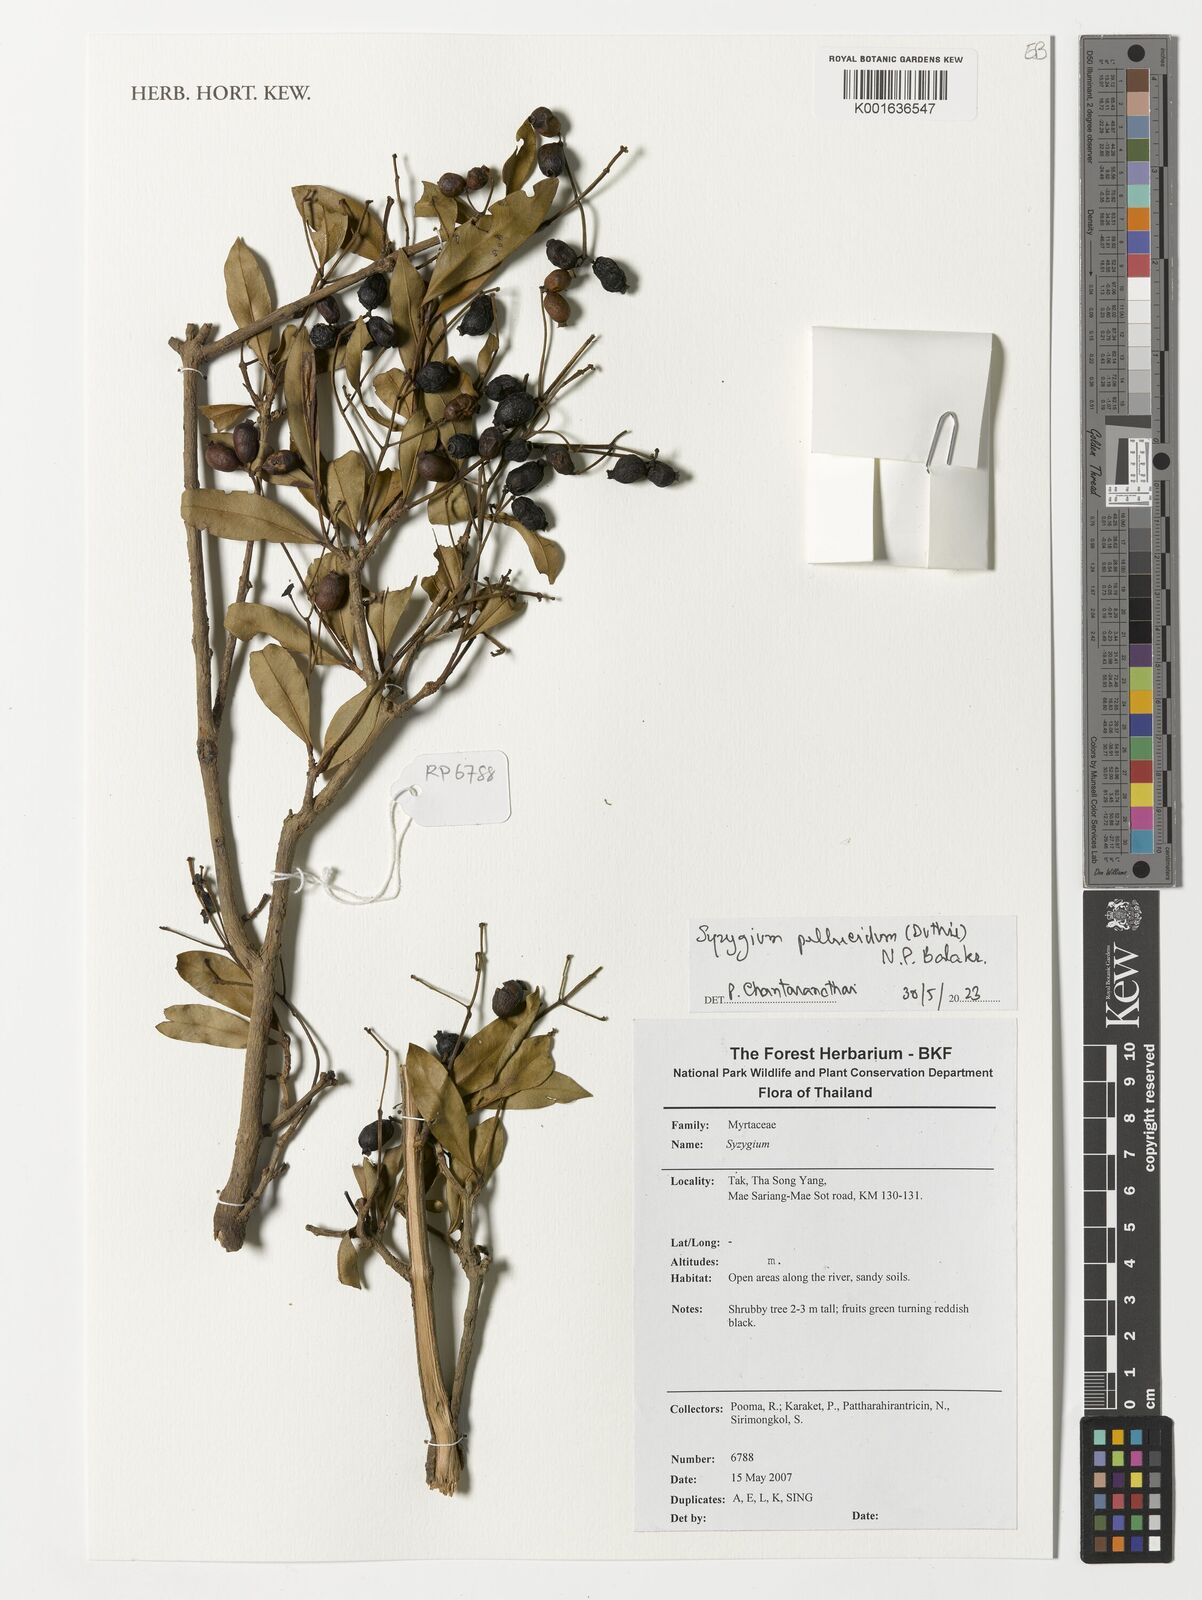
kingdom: Plantae
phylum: Tracheophyta
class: Magnoliopsida
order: Myrtales
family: Myrtaceae
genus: Syzygium
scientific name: Syzygium pellucidum
